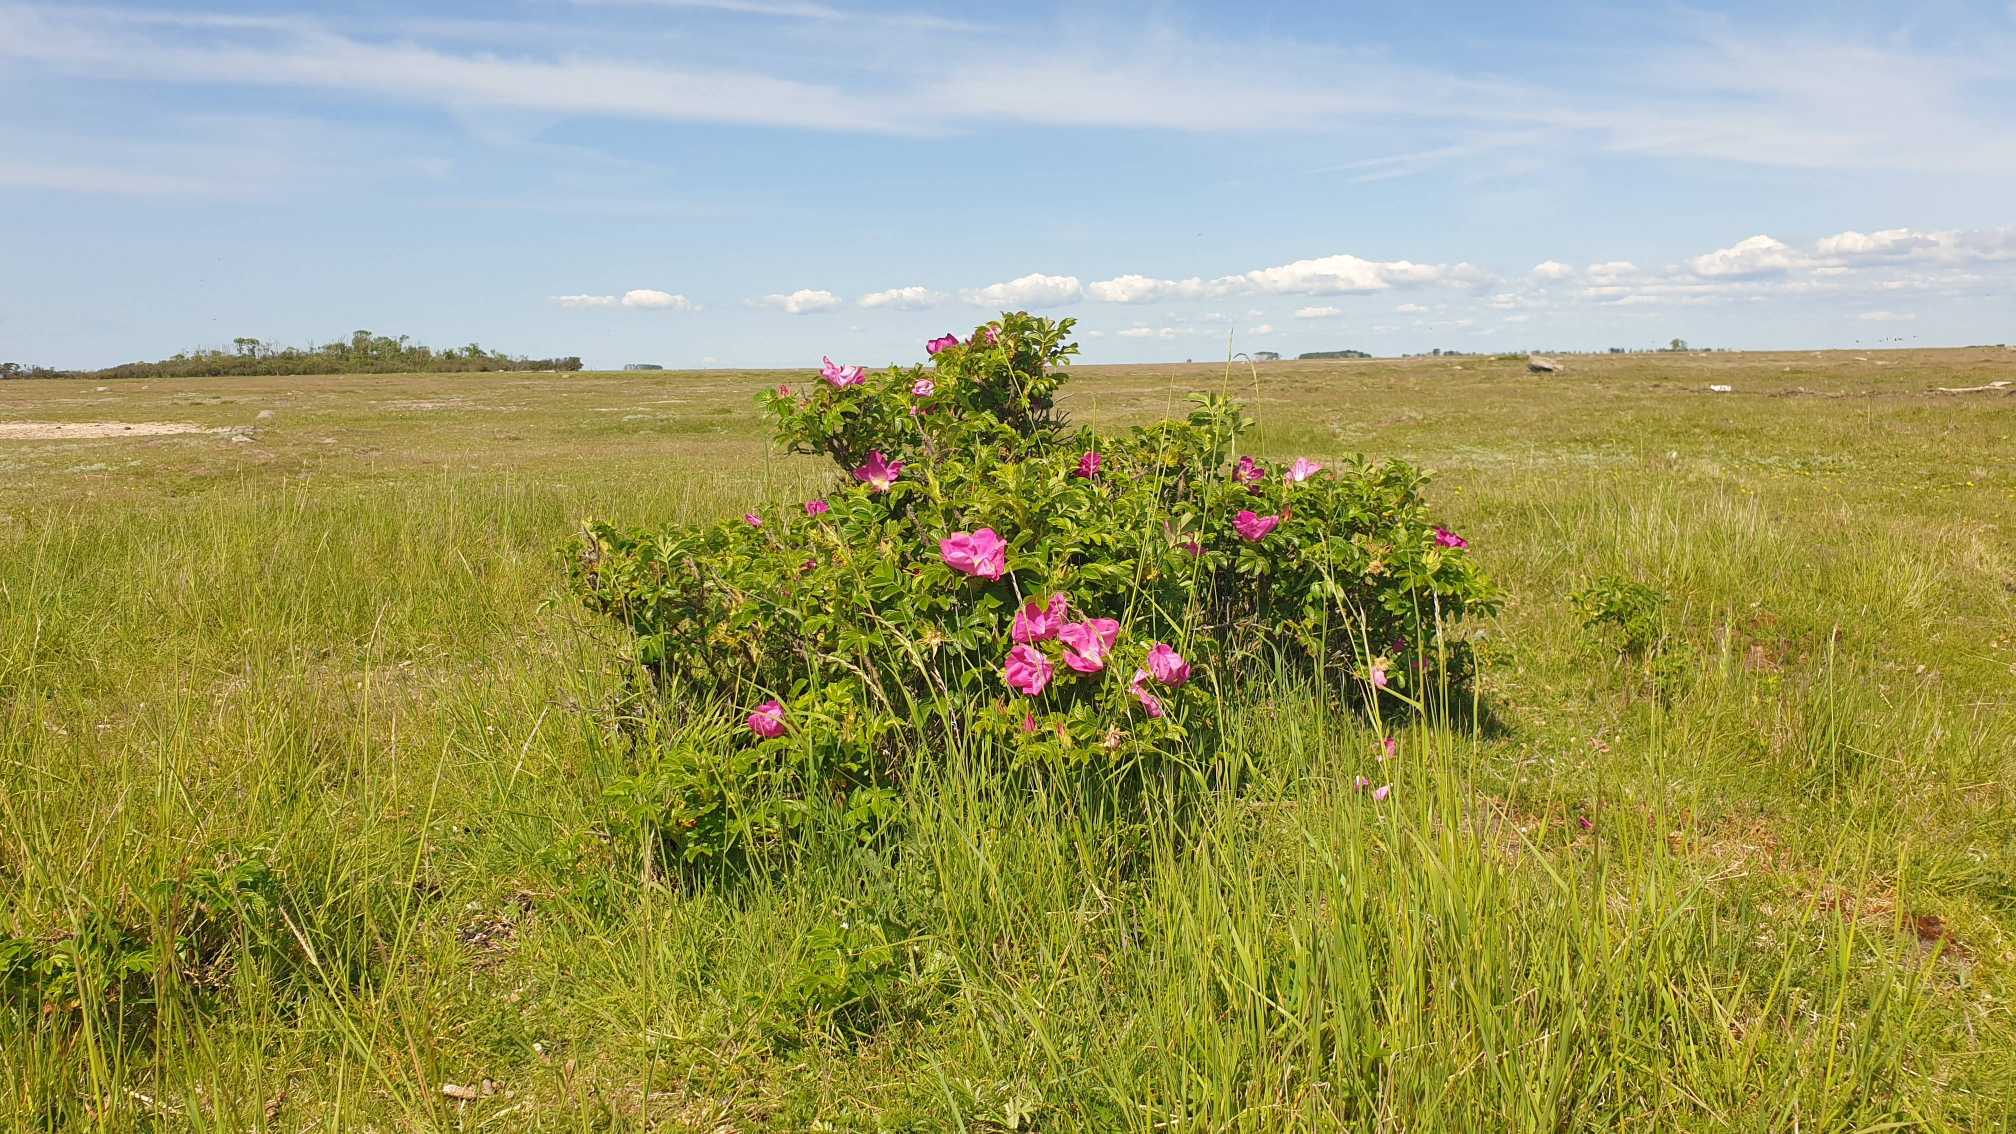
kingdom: Plantae
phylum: Tracheophyta
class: Magnoliopsida
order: Rosales
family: Rosaceae
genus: Rosa
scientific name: Rosa rugosa
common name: Rynket rose
